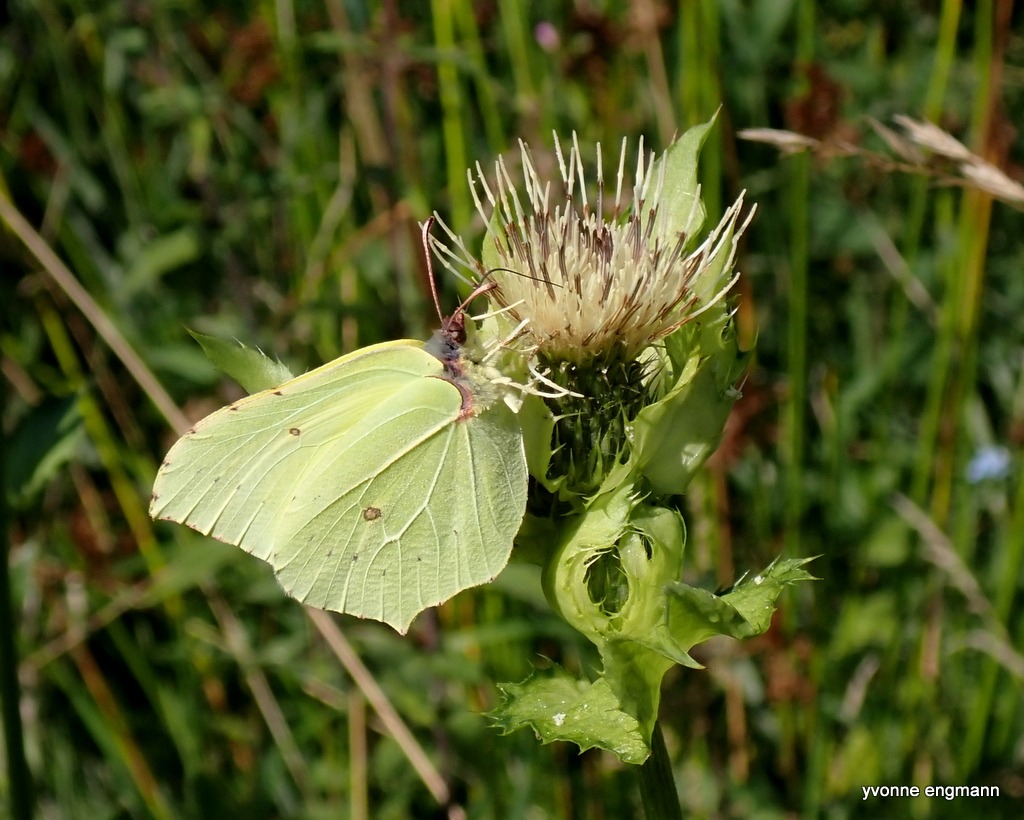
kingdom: Animalia
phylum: Arthropoda
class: Insecta
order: Lepidoptera
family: Pieridae
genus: Gonepteryx
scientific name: Gonepteryx rhamni
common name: Citronsommerfugl
